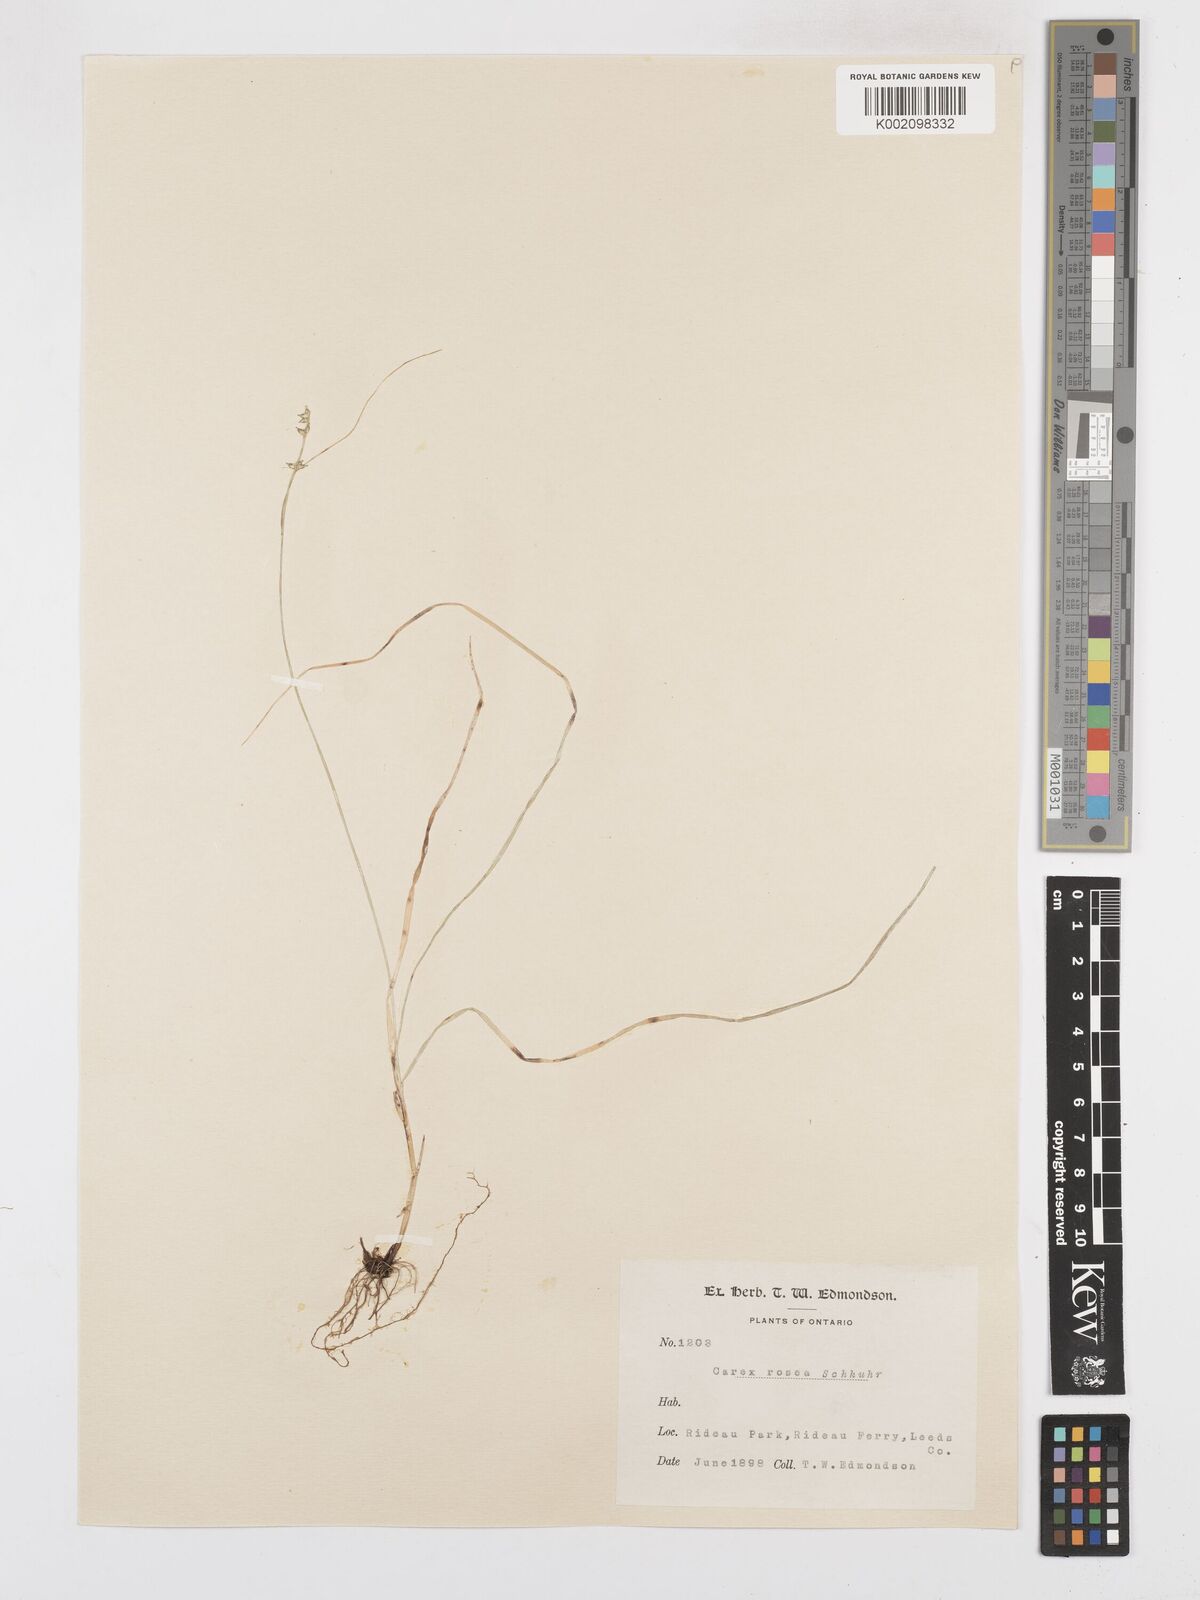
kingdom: Plantae
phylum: Tracheophyta
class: Liliopsida
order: Poales
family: Cyperaceae
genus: Carex
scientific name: Carex rosea
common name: Curly-styled wood sedge
